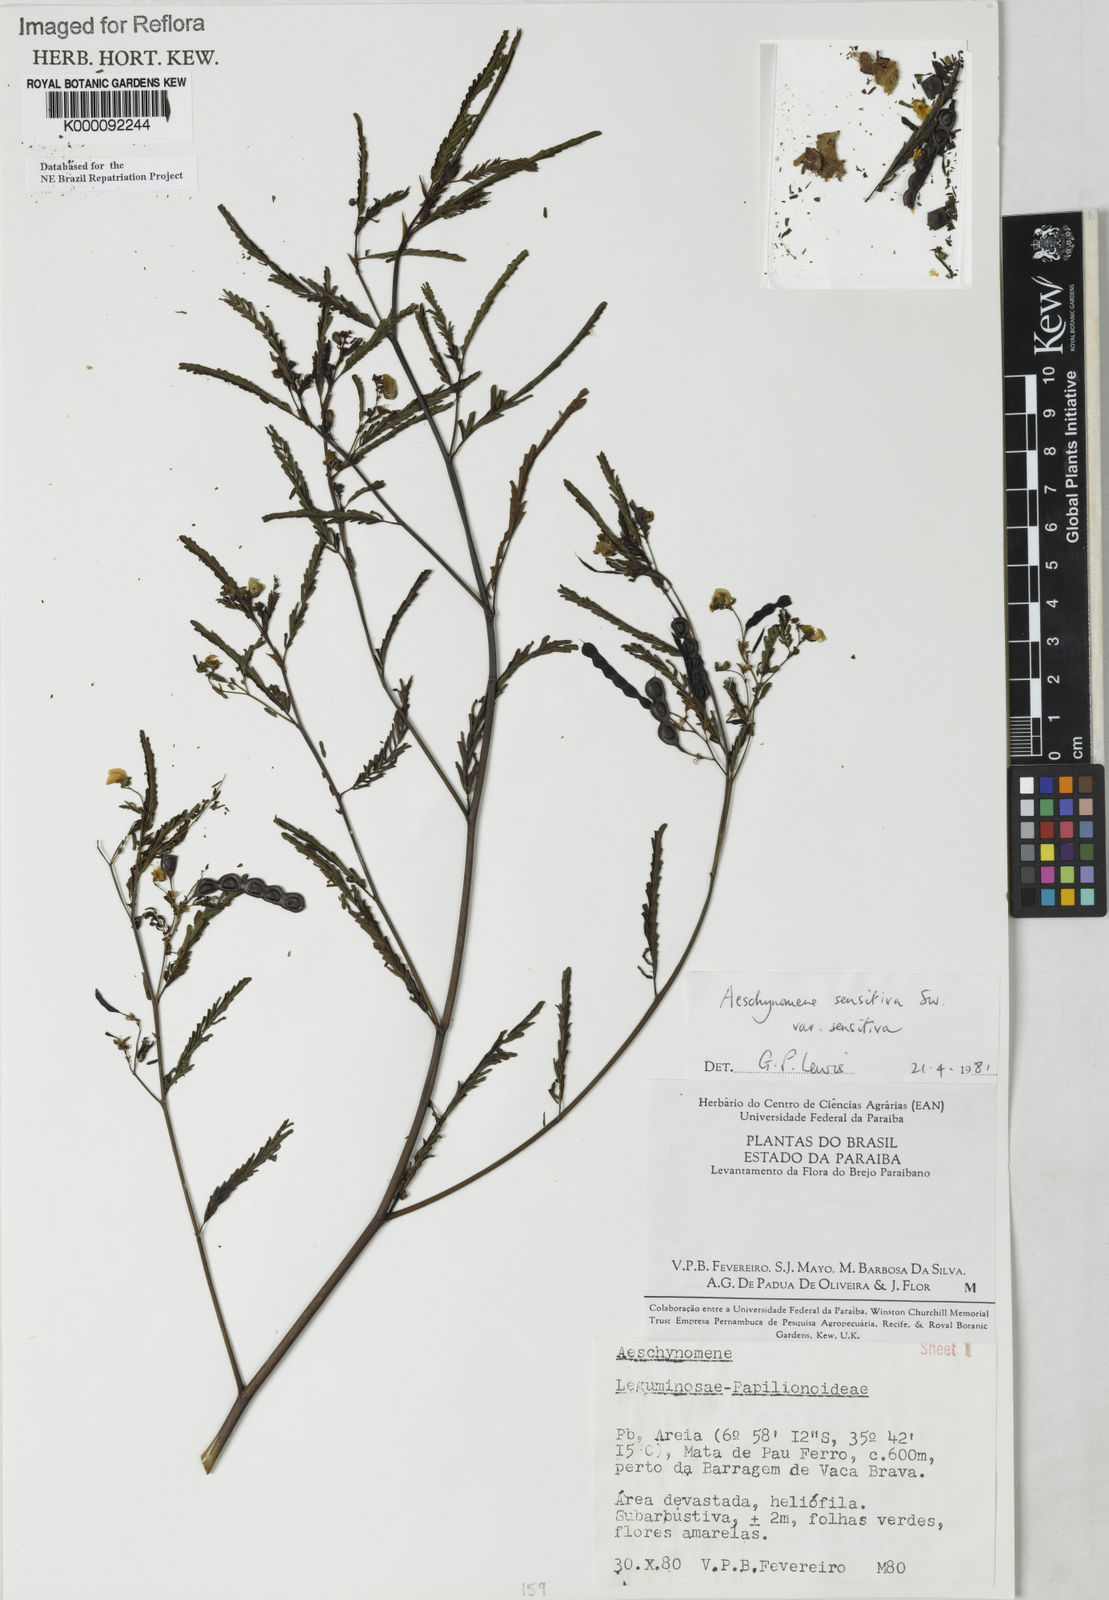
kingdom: Plantae
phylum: Tracheophyta
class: Magnoliopsida
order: Fabales
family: Fabaceae
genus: Aeschynomene
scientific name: Aeschynomene sensitiva
